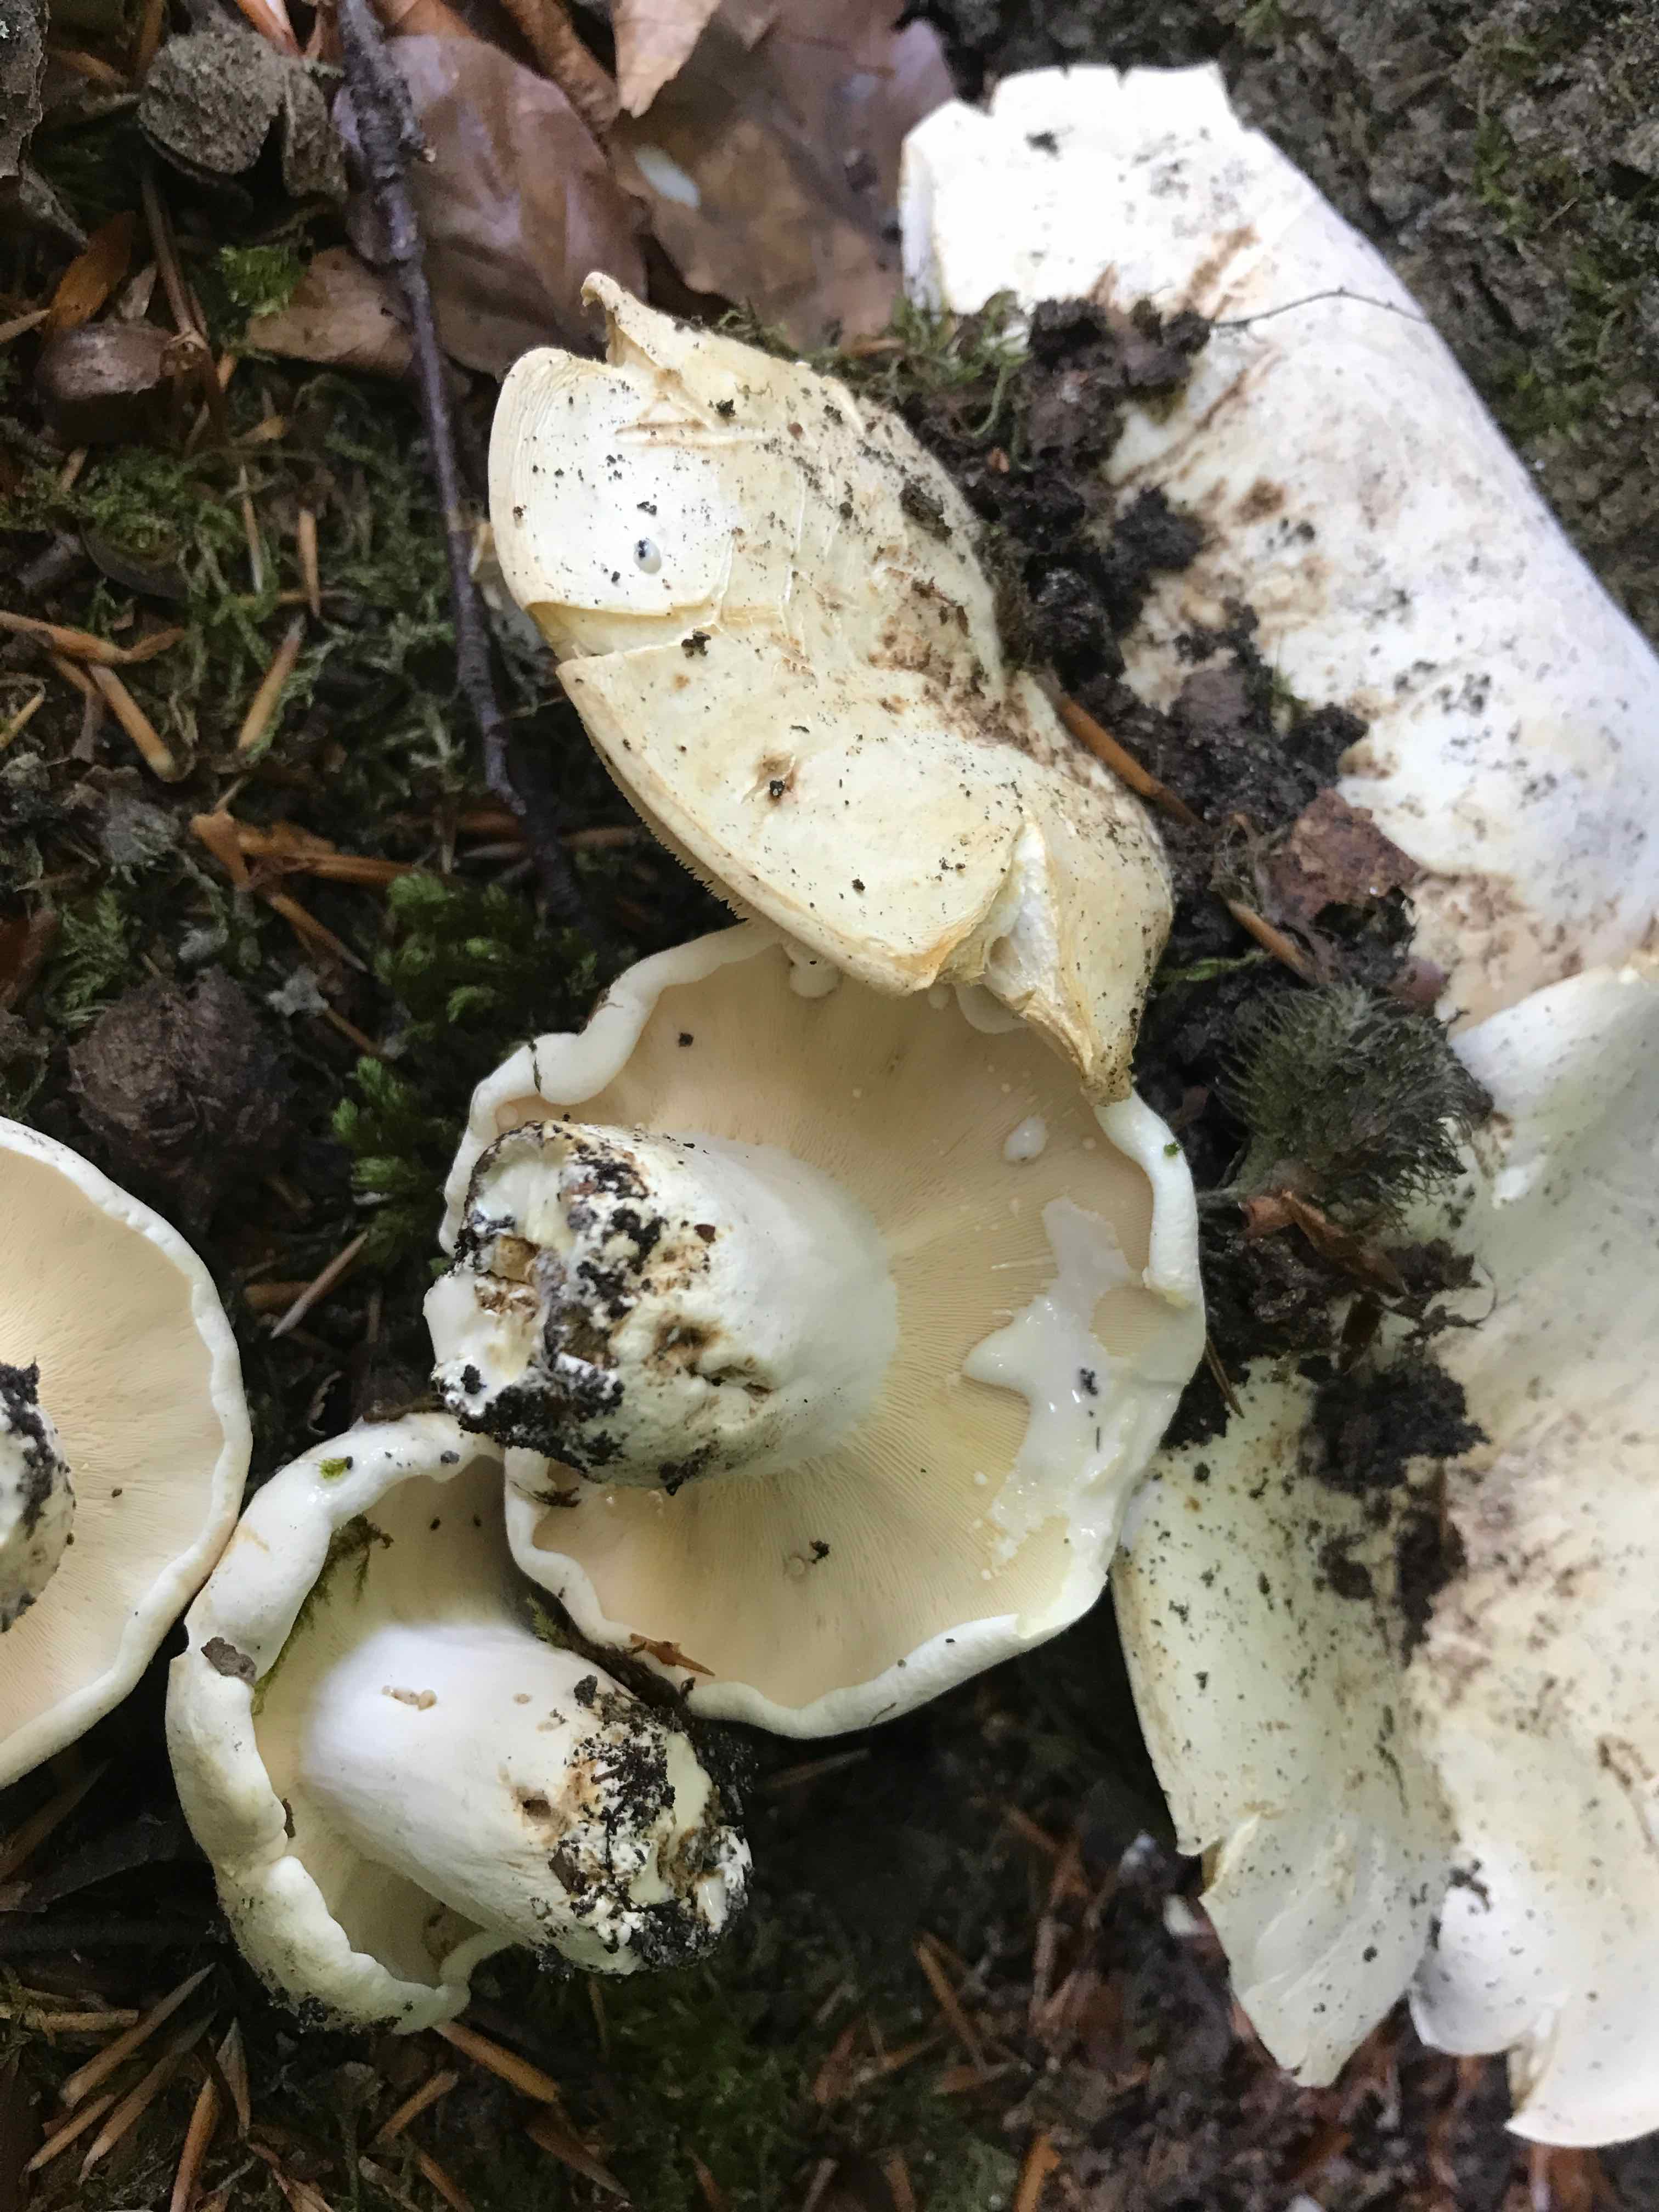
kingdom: Fungi
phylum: Basidiomycota
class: Agaricomycetes
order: Russulales
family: Russulaceae
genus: Lactifluus
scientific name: Lactifluus
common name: mælkehat
